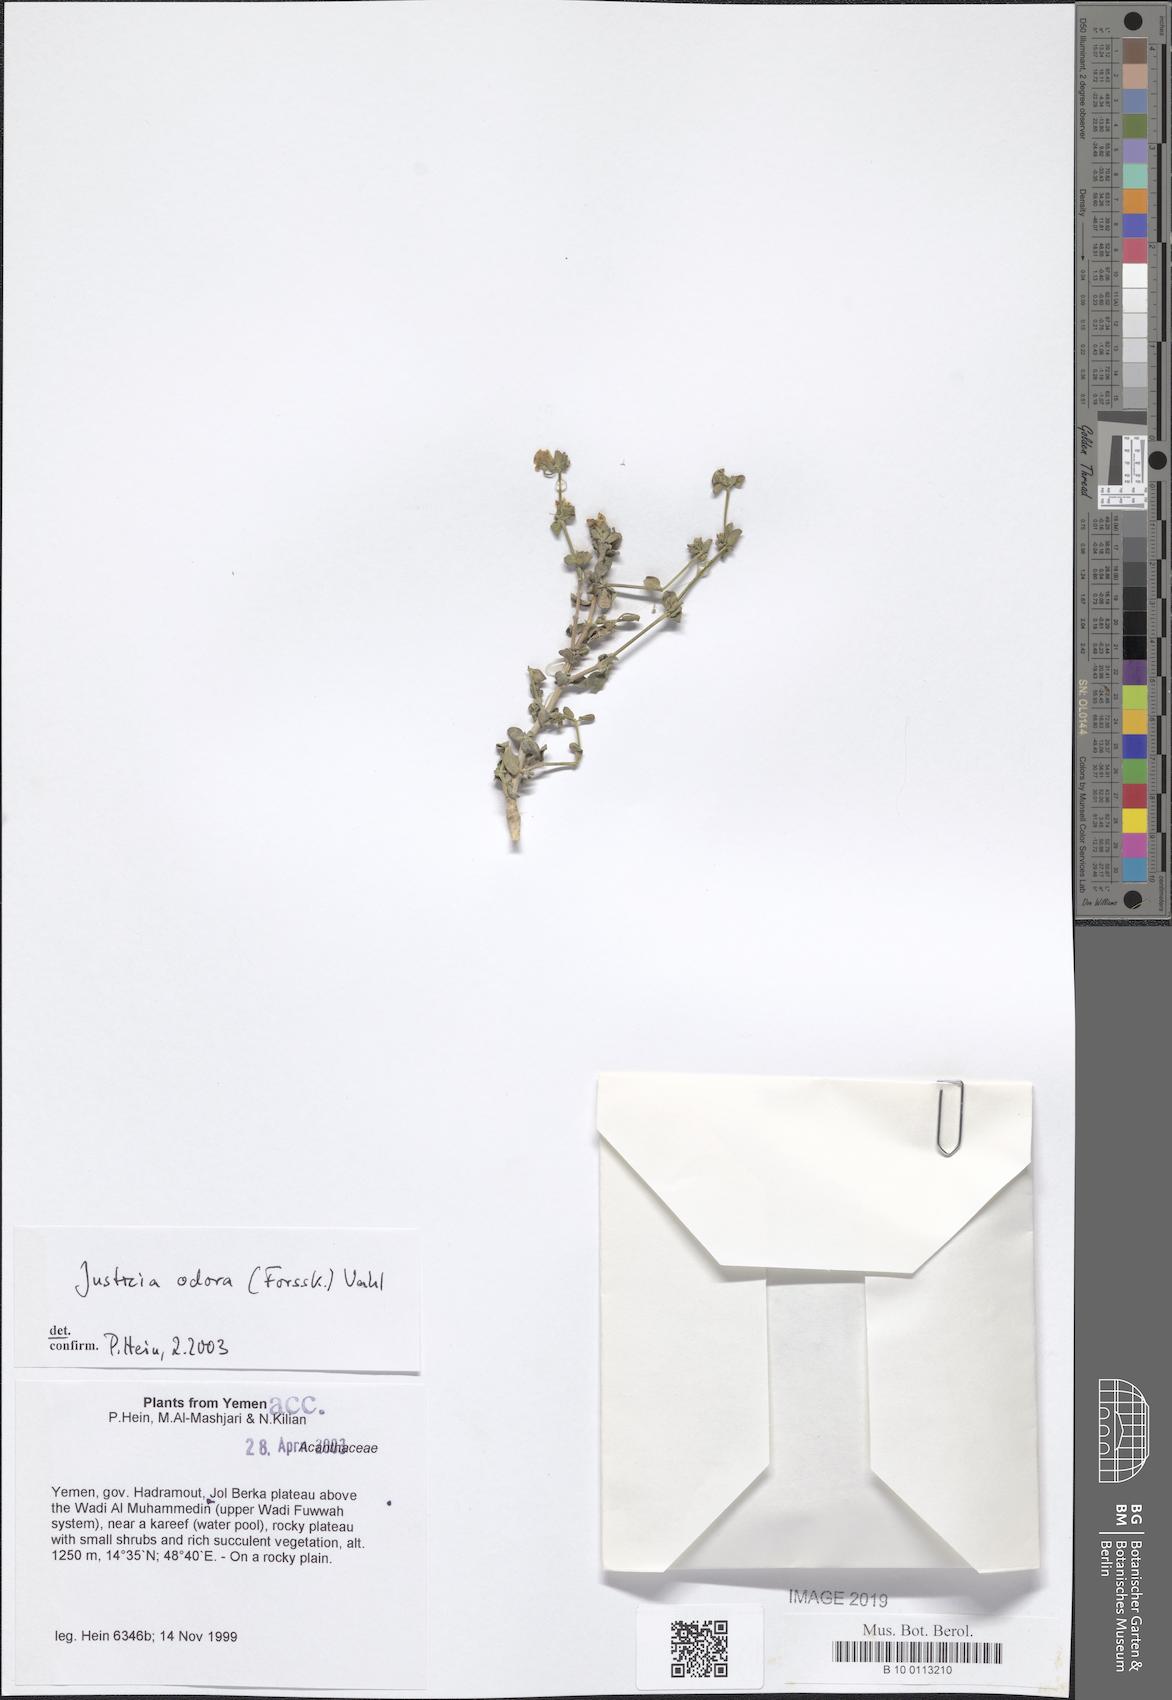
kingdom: Plantae
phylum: Tracheophyta
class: Magnoliopsida
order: Lamiales
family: Acanthaceae
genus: Justicia
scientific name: Justicia odora
